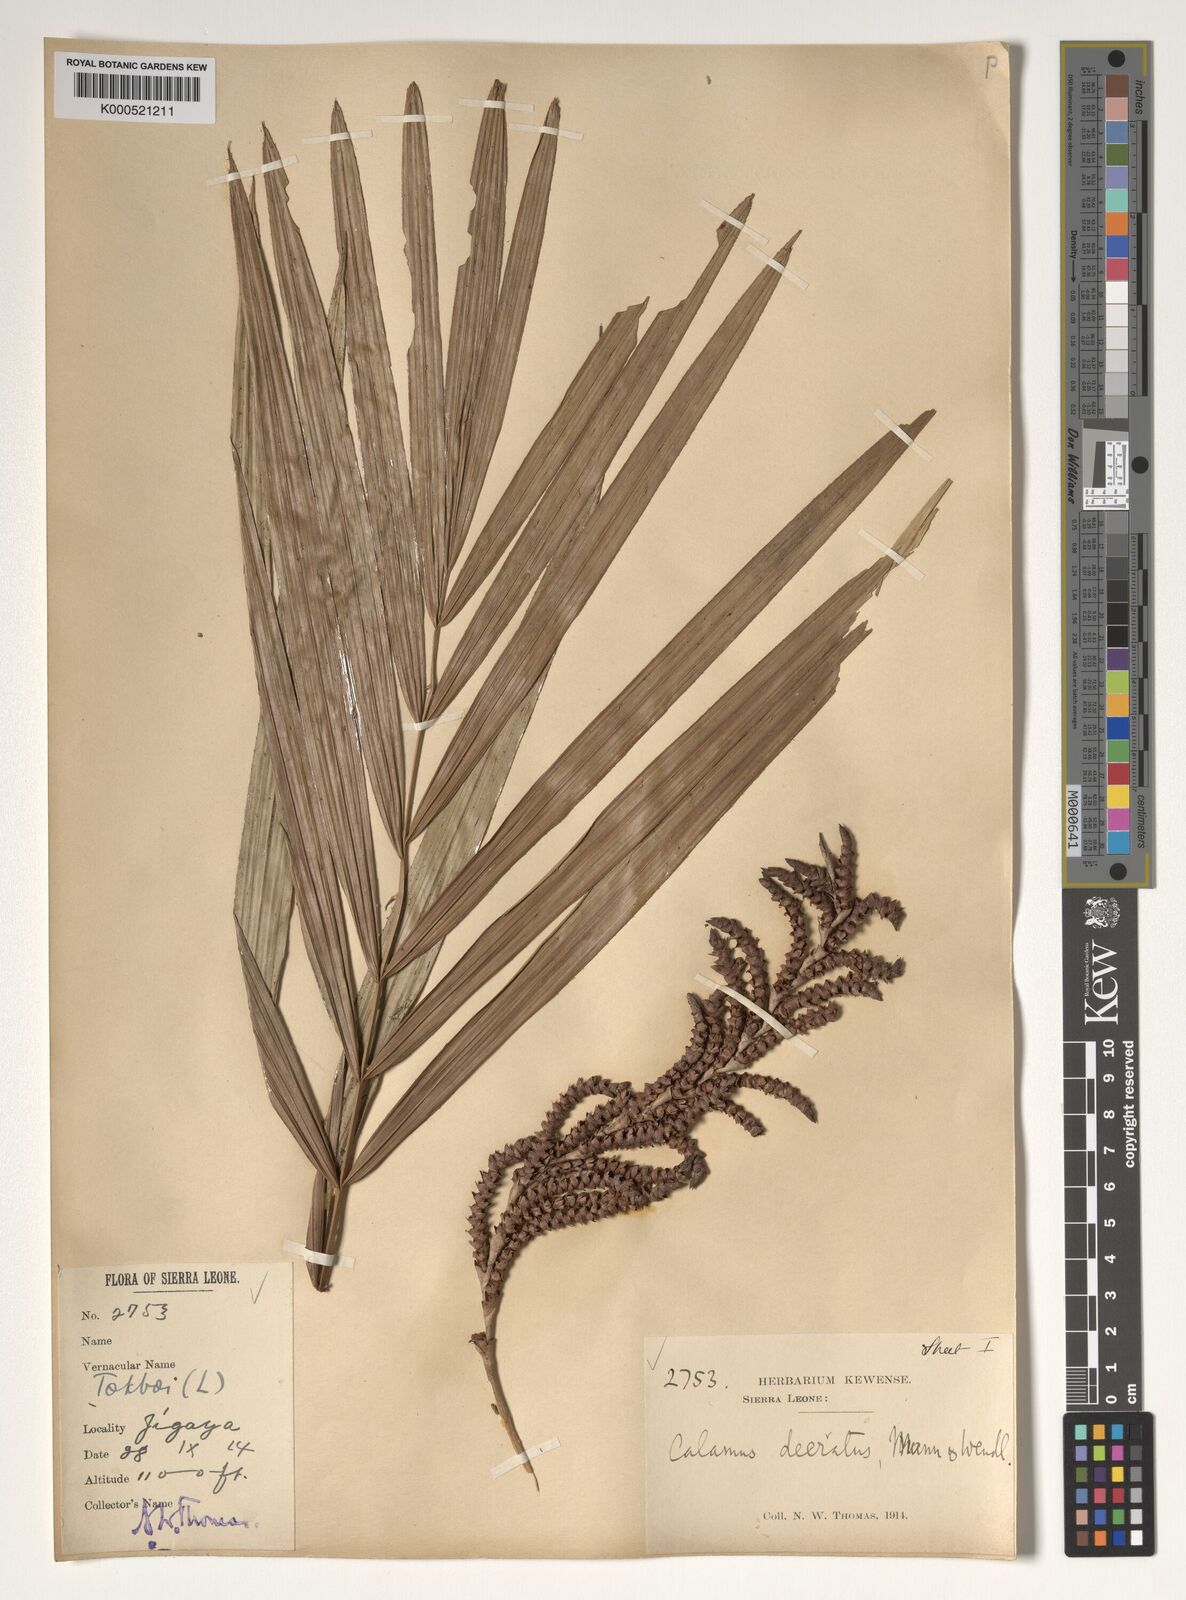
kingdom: Plantae
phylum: Tracheophyta
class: Liliopsida
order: Arecales
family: Arecaceae
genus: Calamus
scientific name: Calamus deerratus
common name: Rattan
